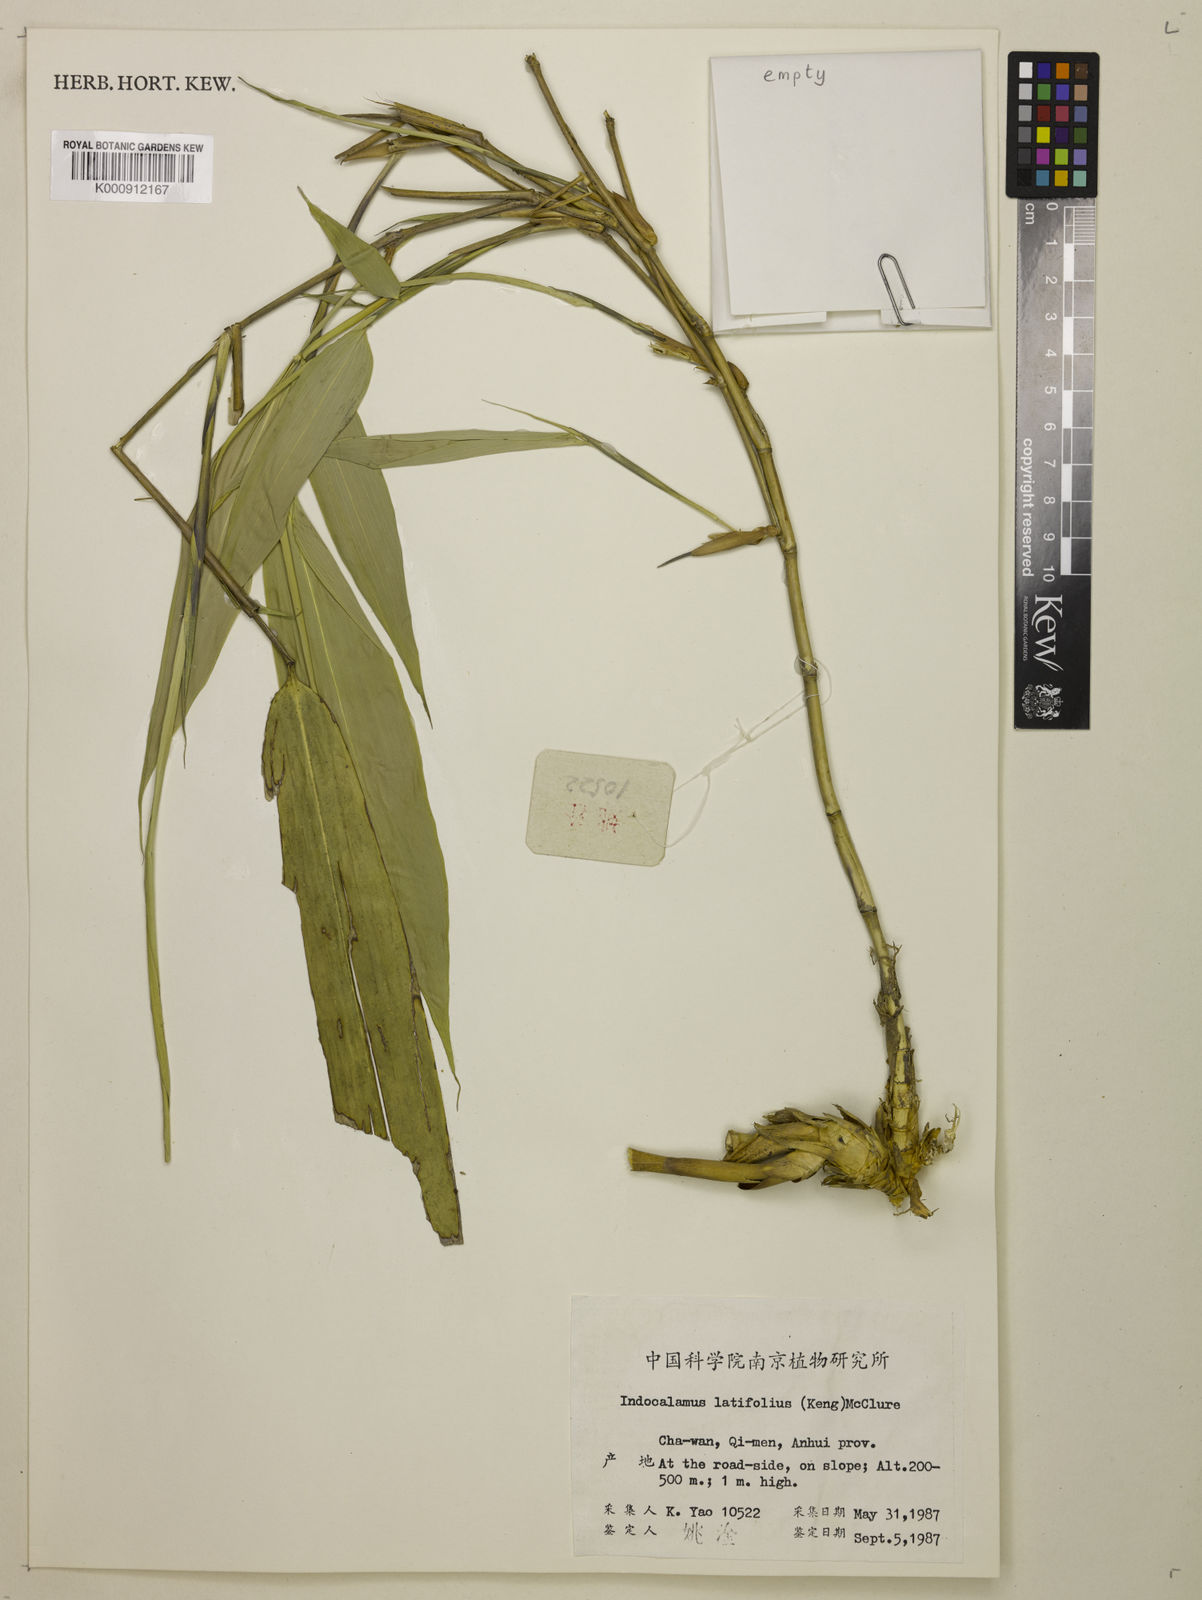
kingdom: Plantae
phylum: Tracheophyta
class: Liliopsida
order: Poales
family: Poaceae
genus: Indocalamus
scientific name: Indocalamus latifolius
